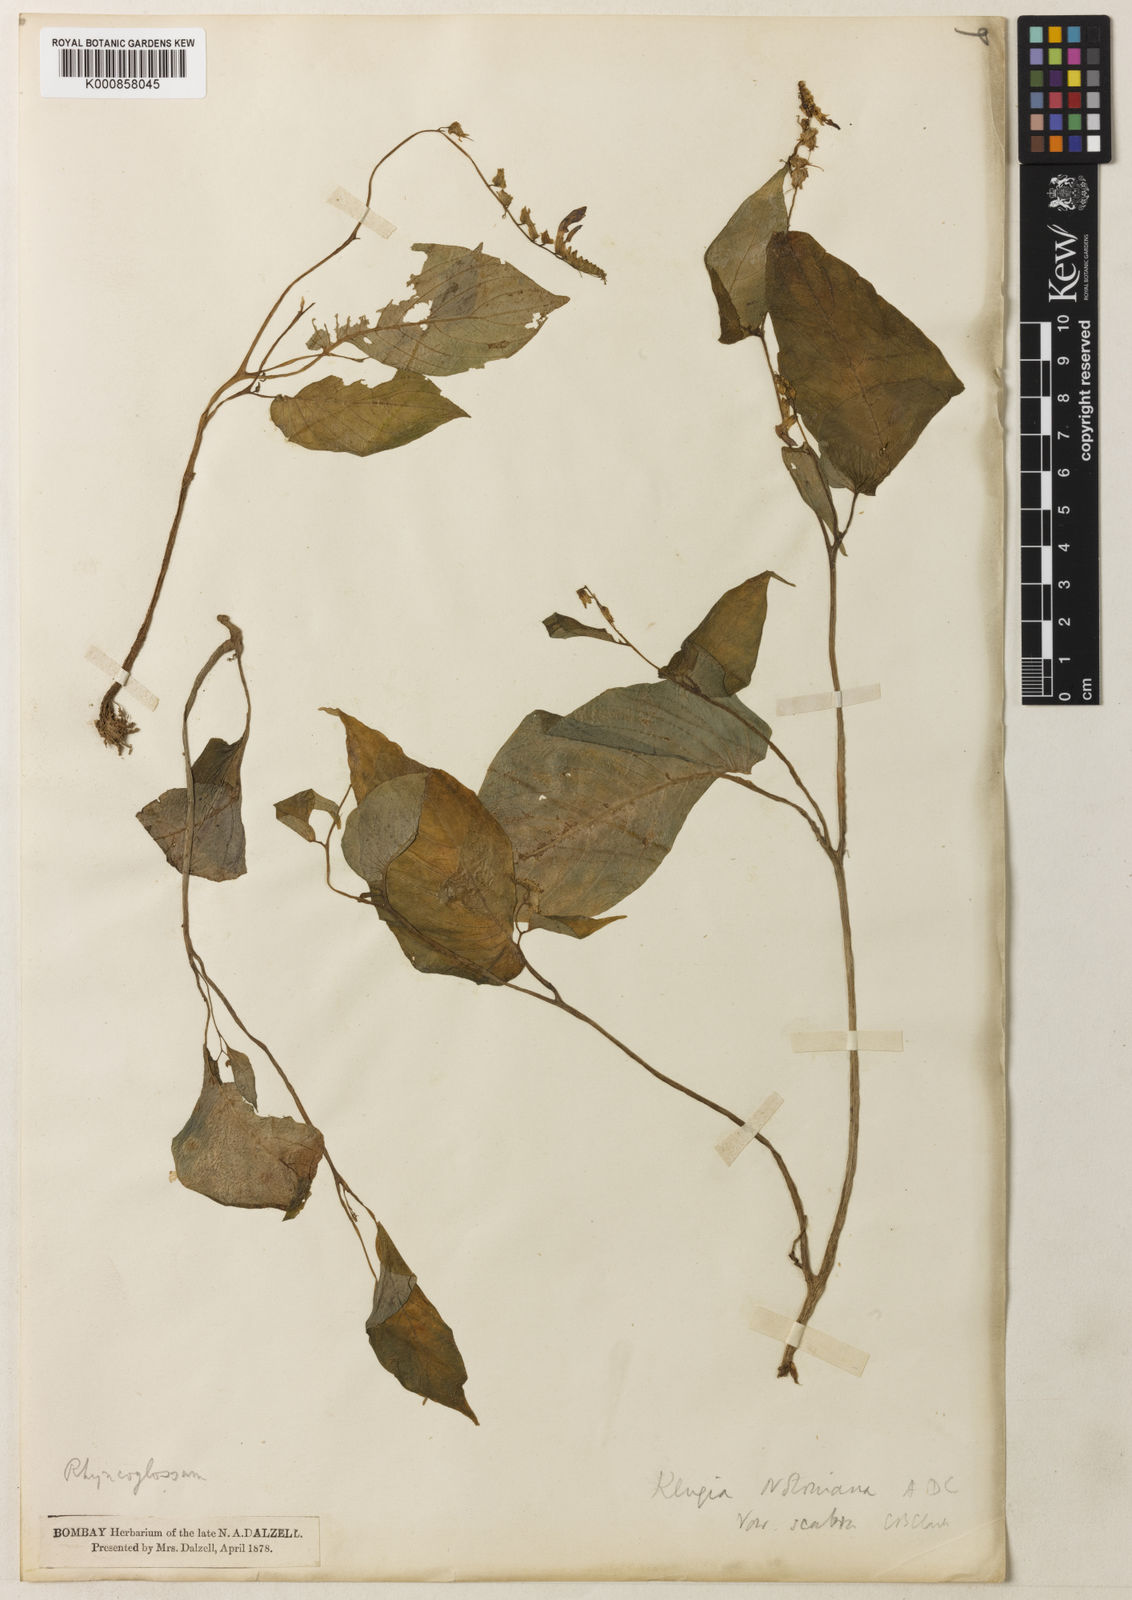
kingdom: Plantae
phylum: Tracheophyta
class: Magnoliopsida
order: Lamiales
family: Gesneriaceae
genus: Rhynchoglossum
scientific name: Rhynchoglossum notonianum
